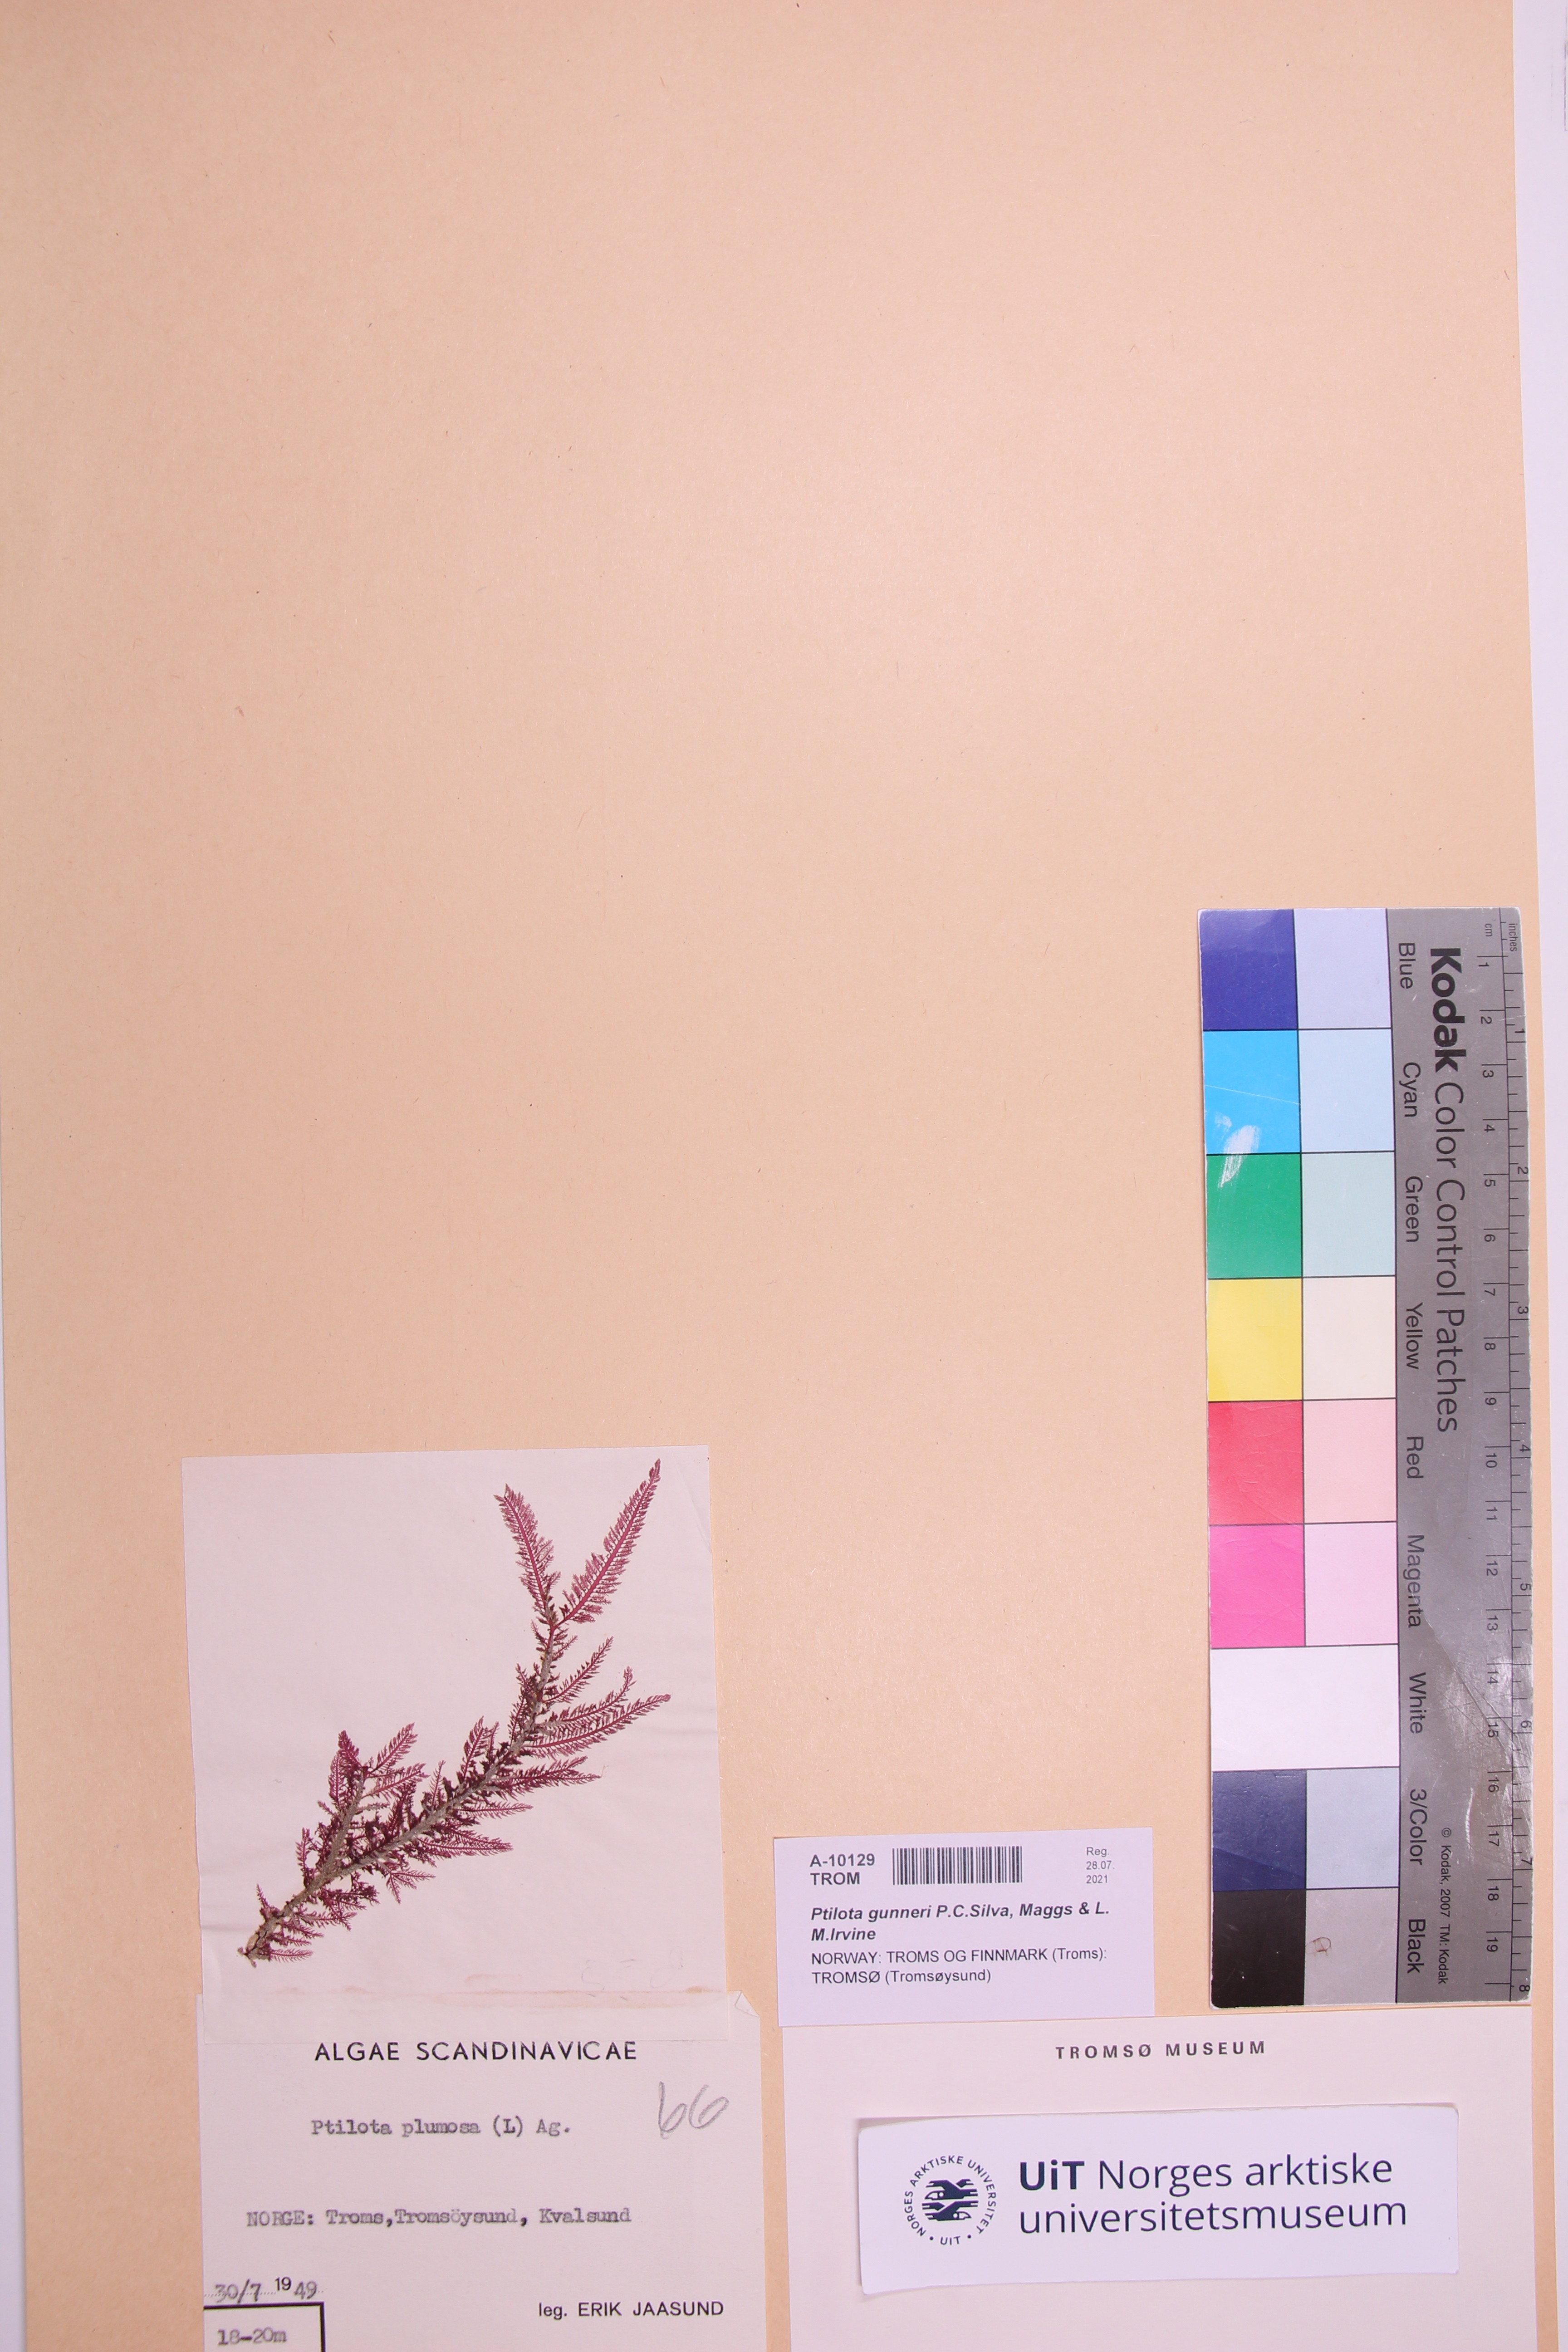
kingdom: Plantae
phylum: Rhodophyta
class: Florideophyceae
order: Ceramiales
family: Wrangeliaceae
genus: Ptilota
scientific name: Ptilota gunneri
